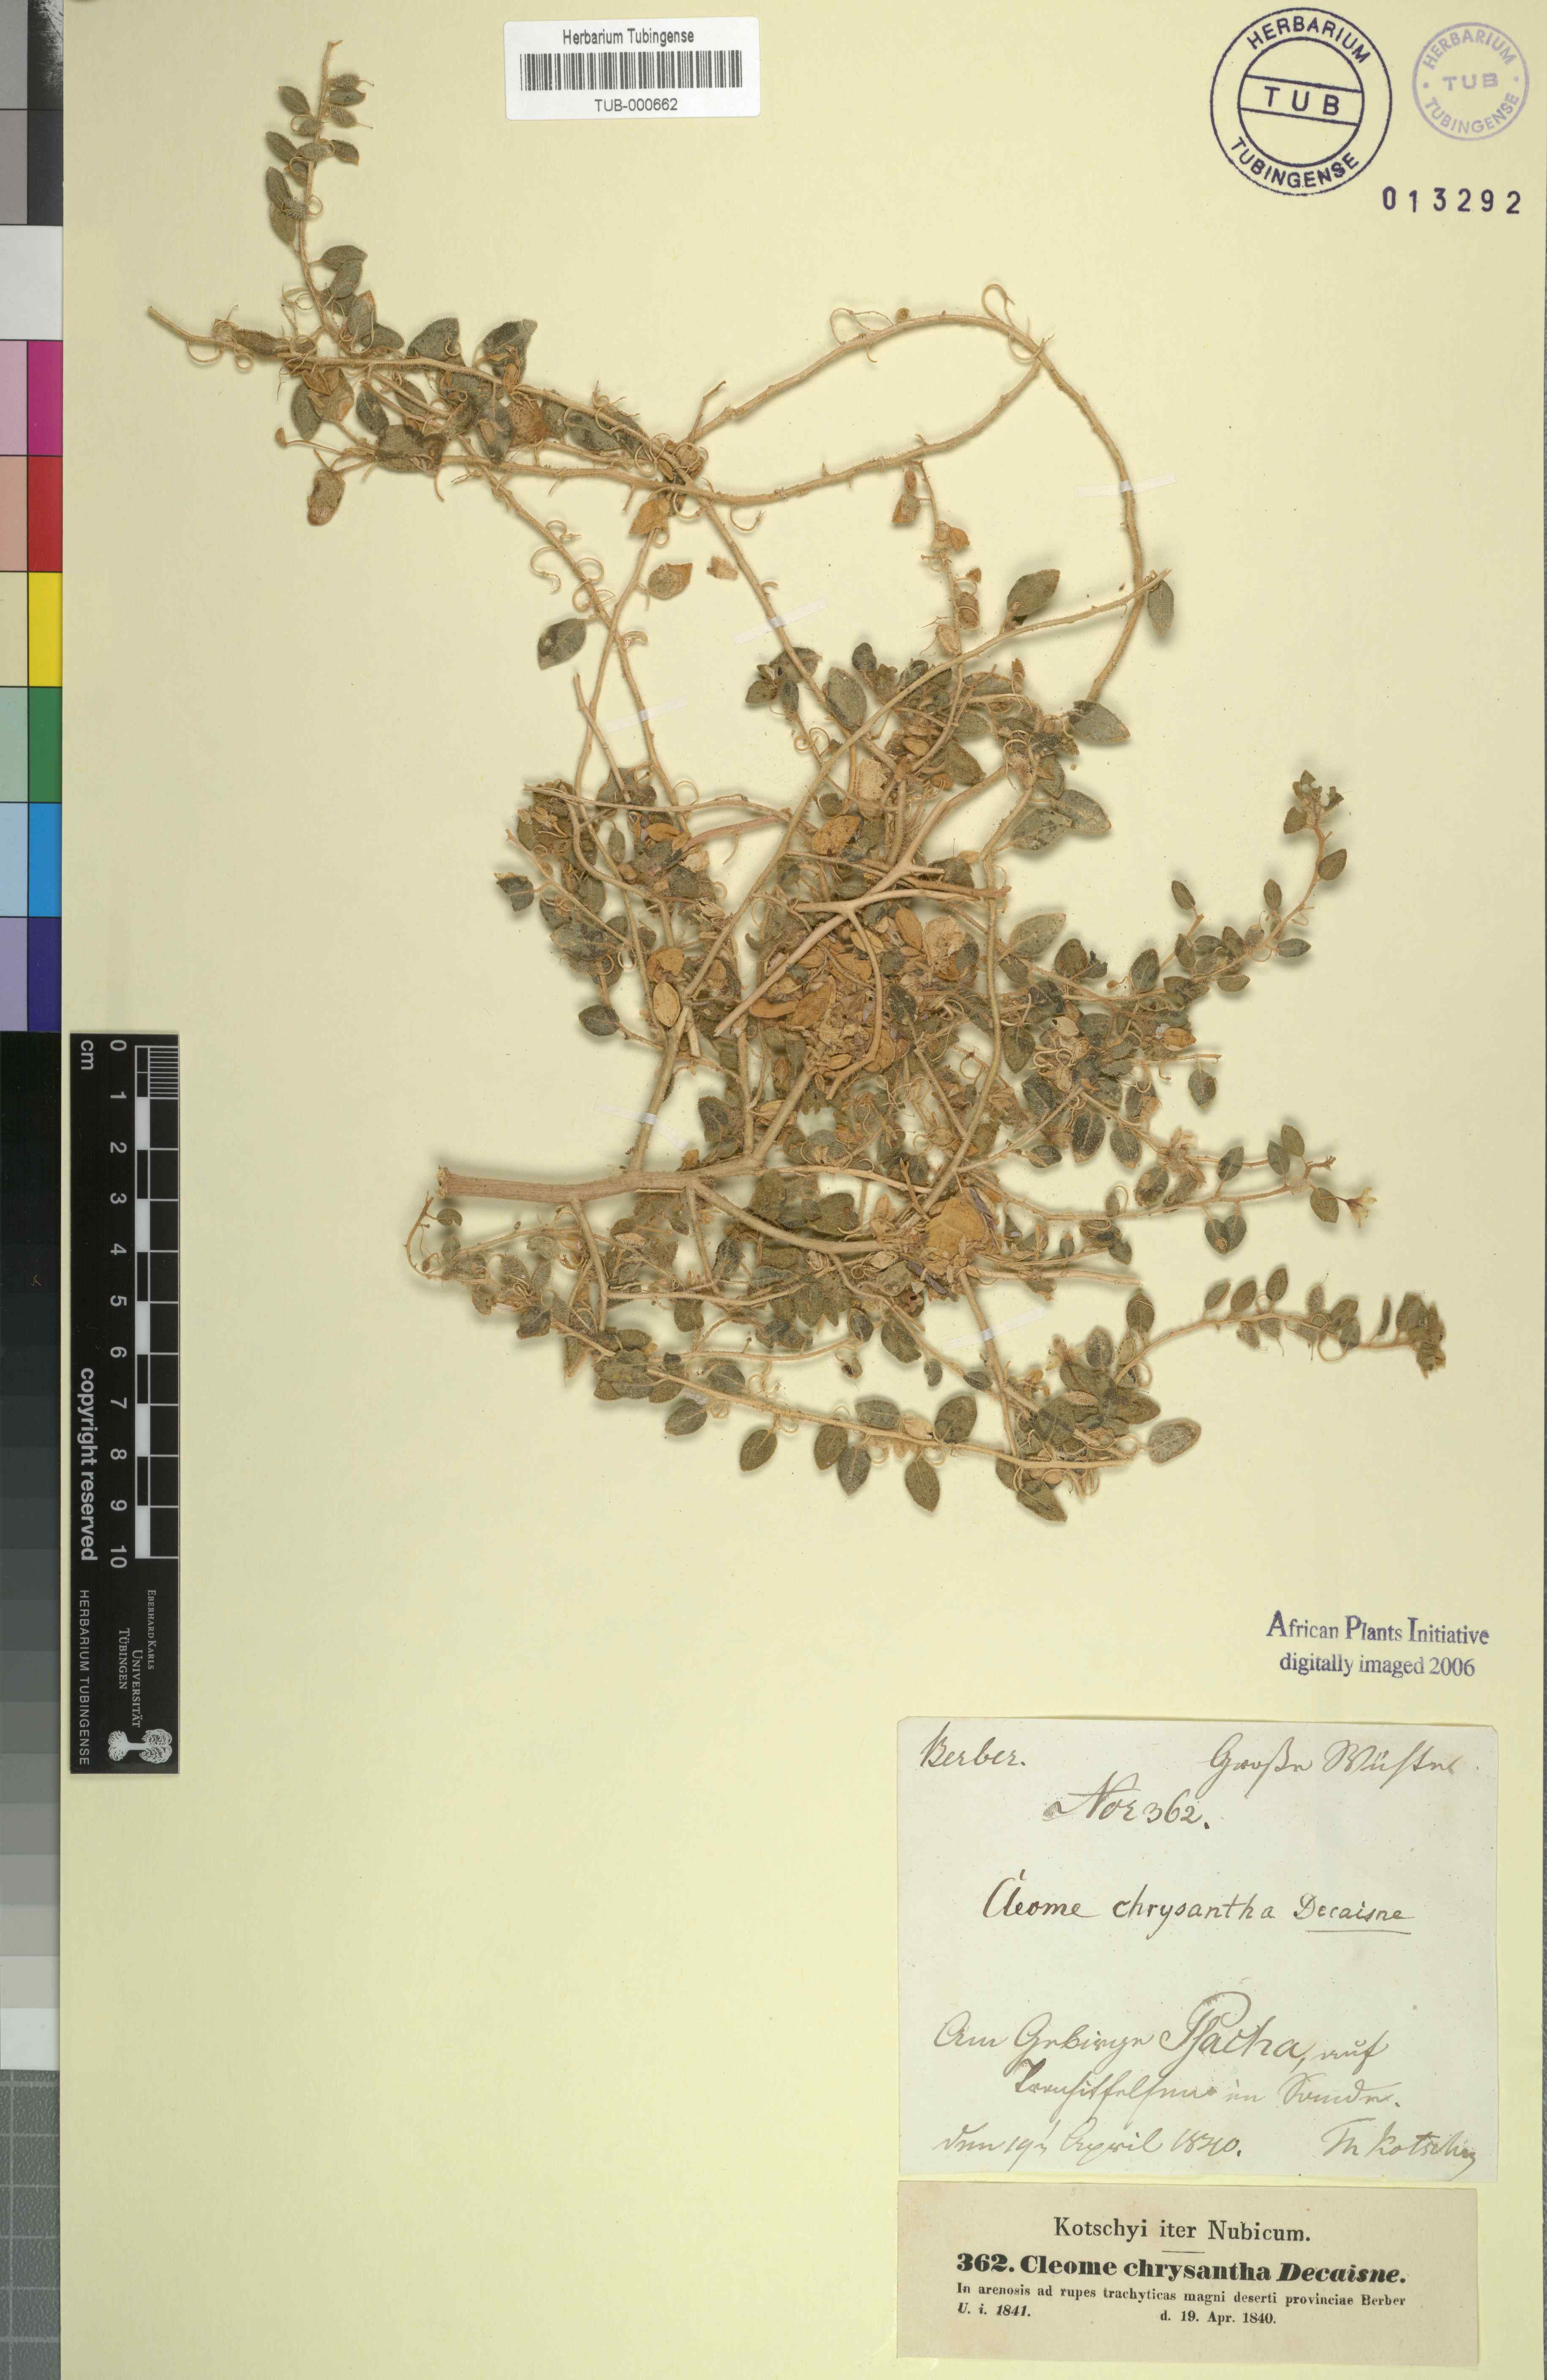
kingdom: Plantae
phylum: Tracheophyta
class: Magnoliopsida
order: Brassicales
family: Cleomaceae
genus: Thulinella
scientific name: Thulinella chrysantha
